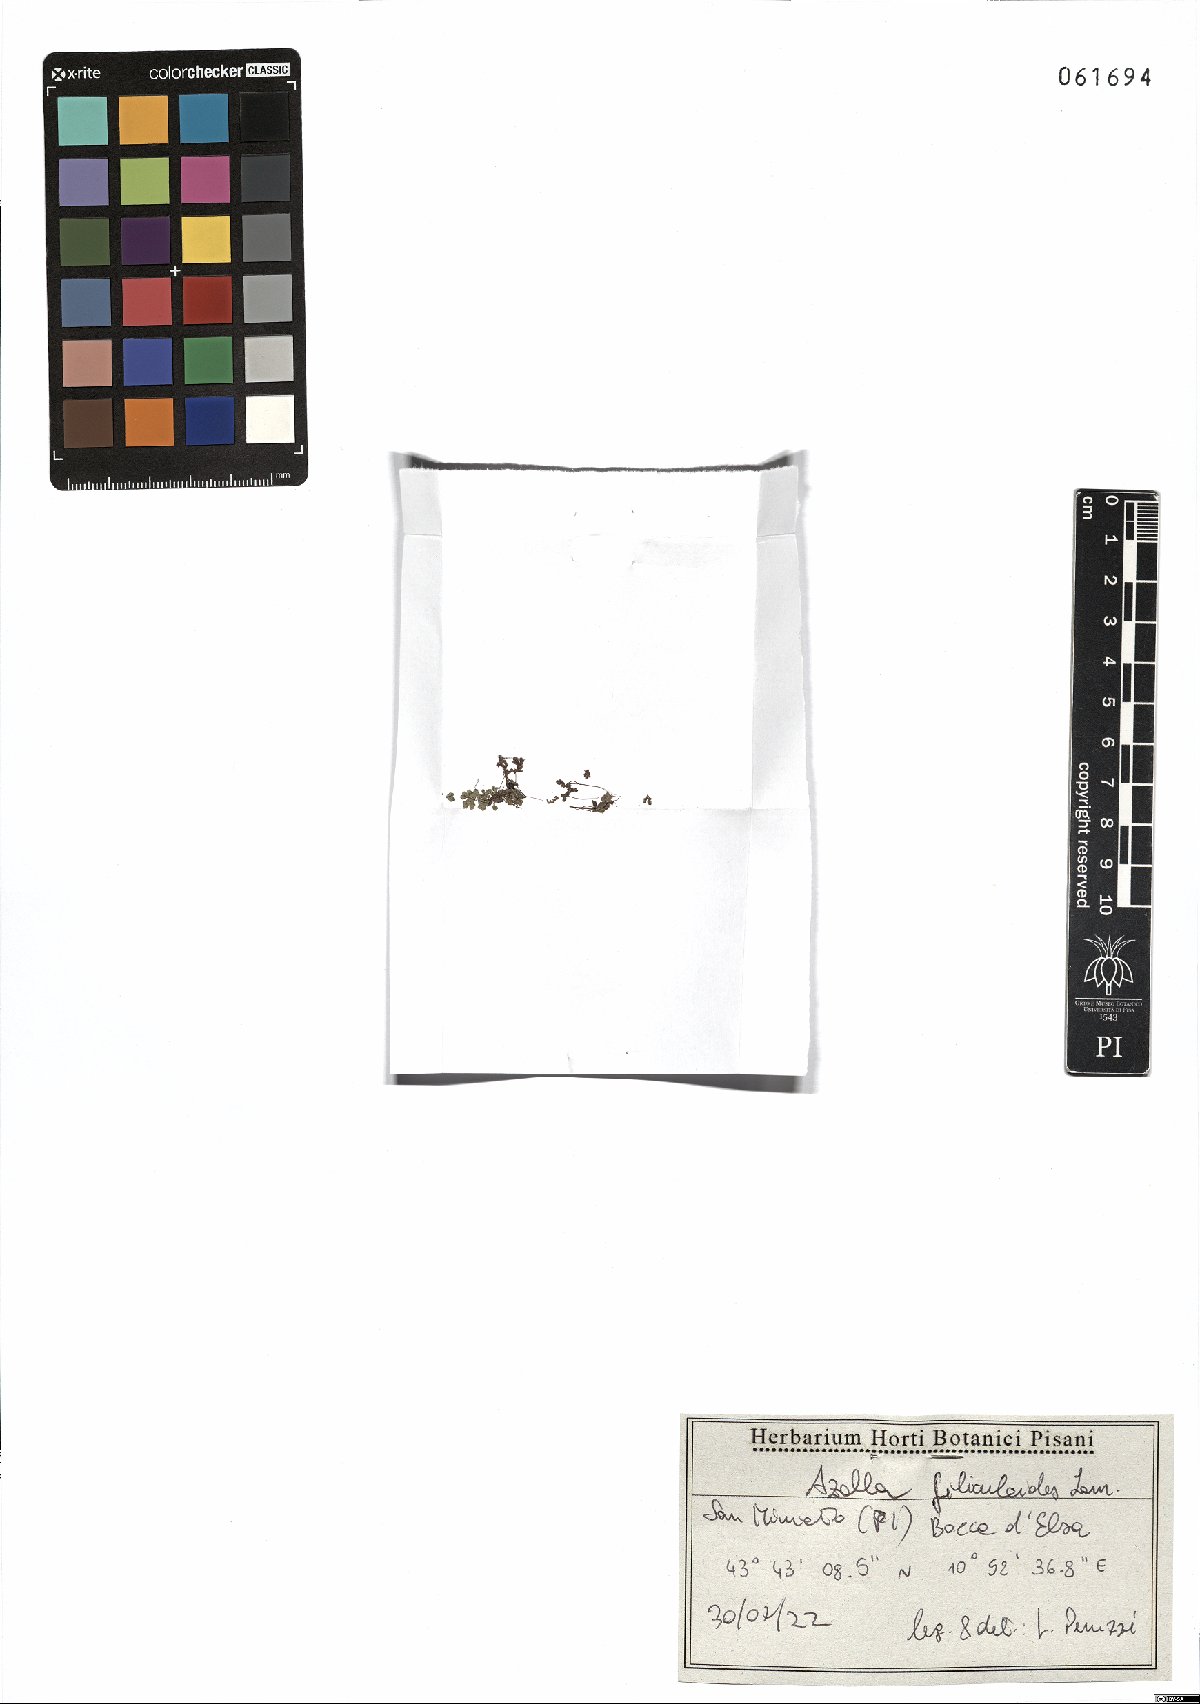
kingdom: Plantae
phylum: Tracheophyta
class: Polypodiopsida
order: Salviniales
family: Salviniaceae
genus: Azolla
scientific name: Azolla filiculoides
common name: Water fern
